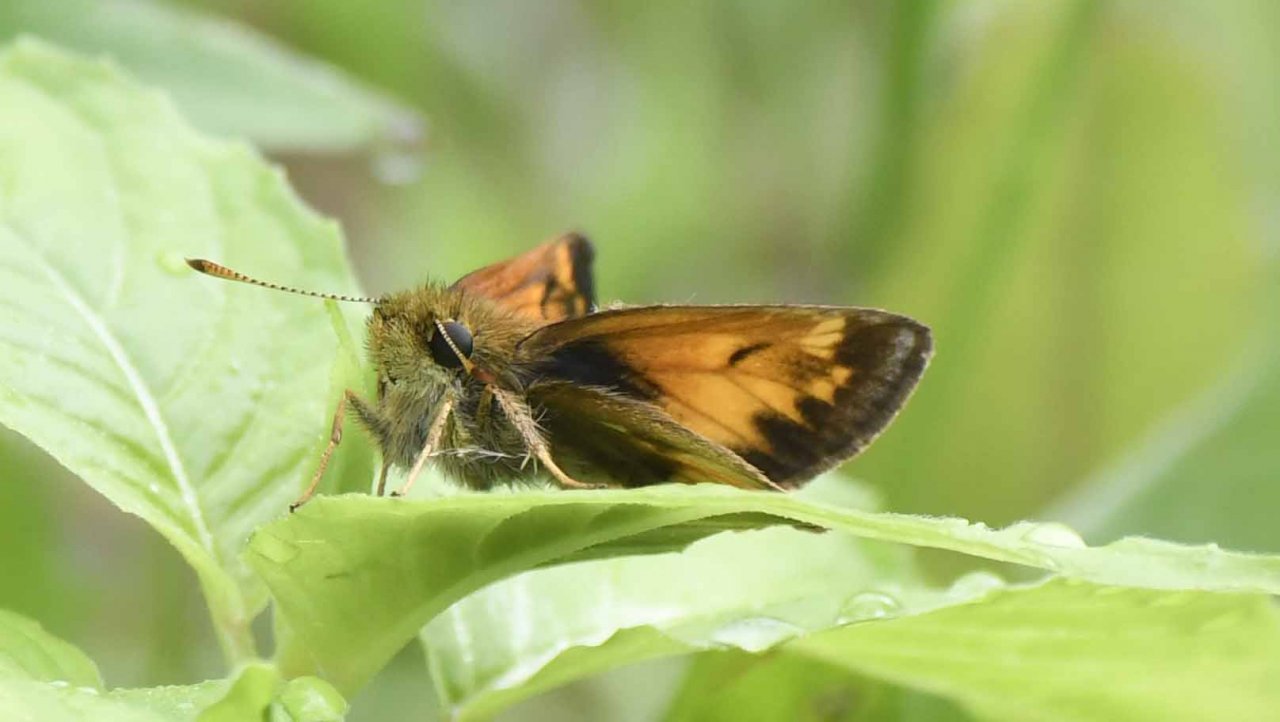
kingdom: Animalia
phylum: Arthropoda
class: Insecta
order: Lepidoptera
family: Hesperiidae
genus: Lon
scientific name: Lon hobomok
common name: Hobomok Skipper
